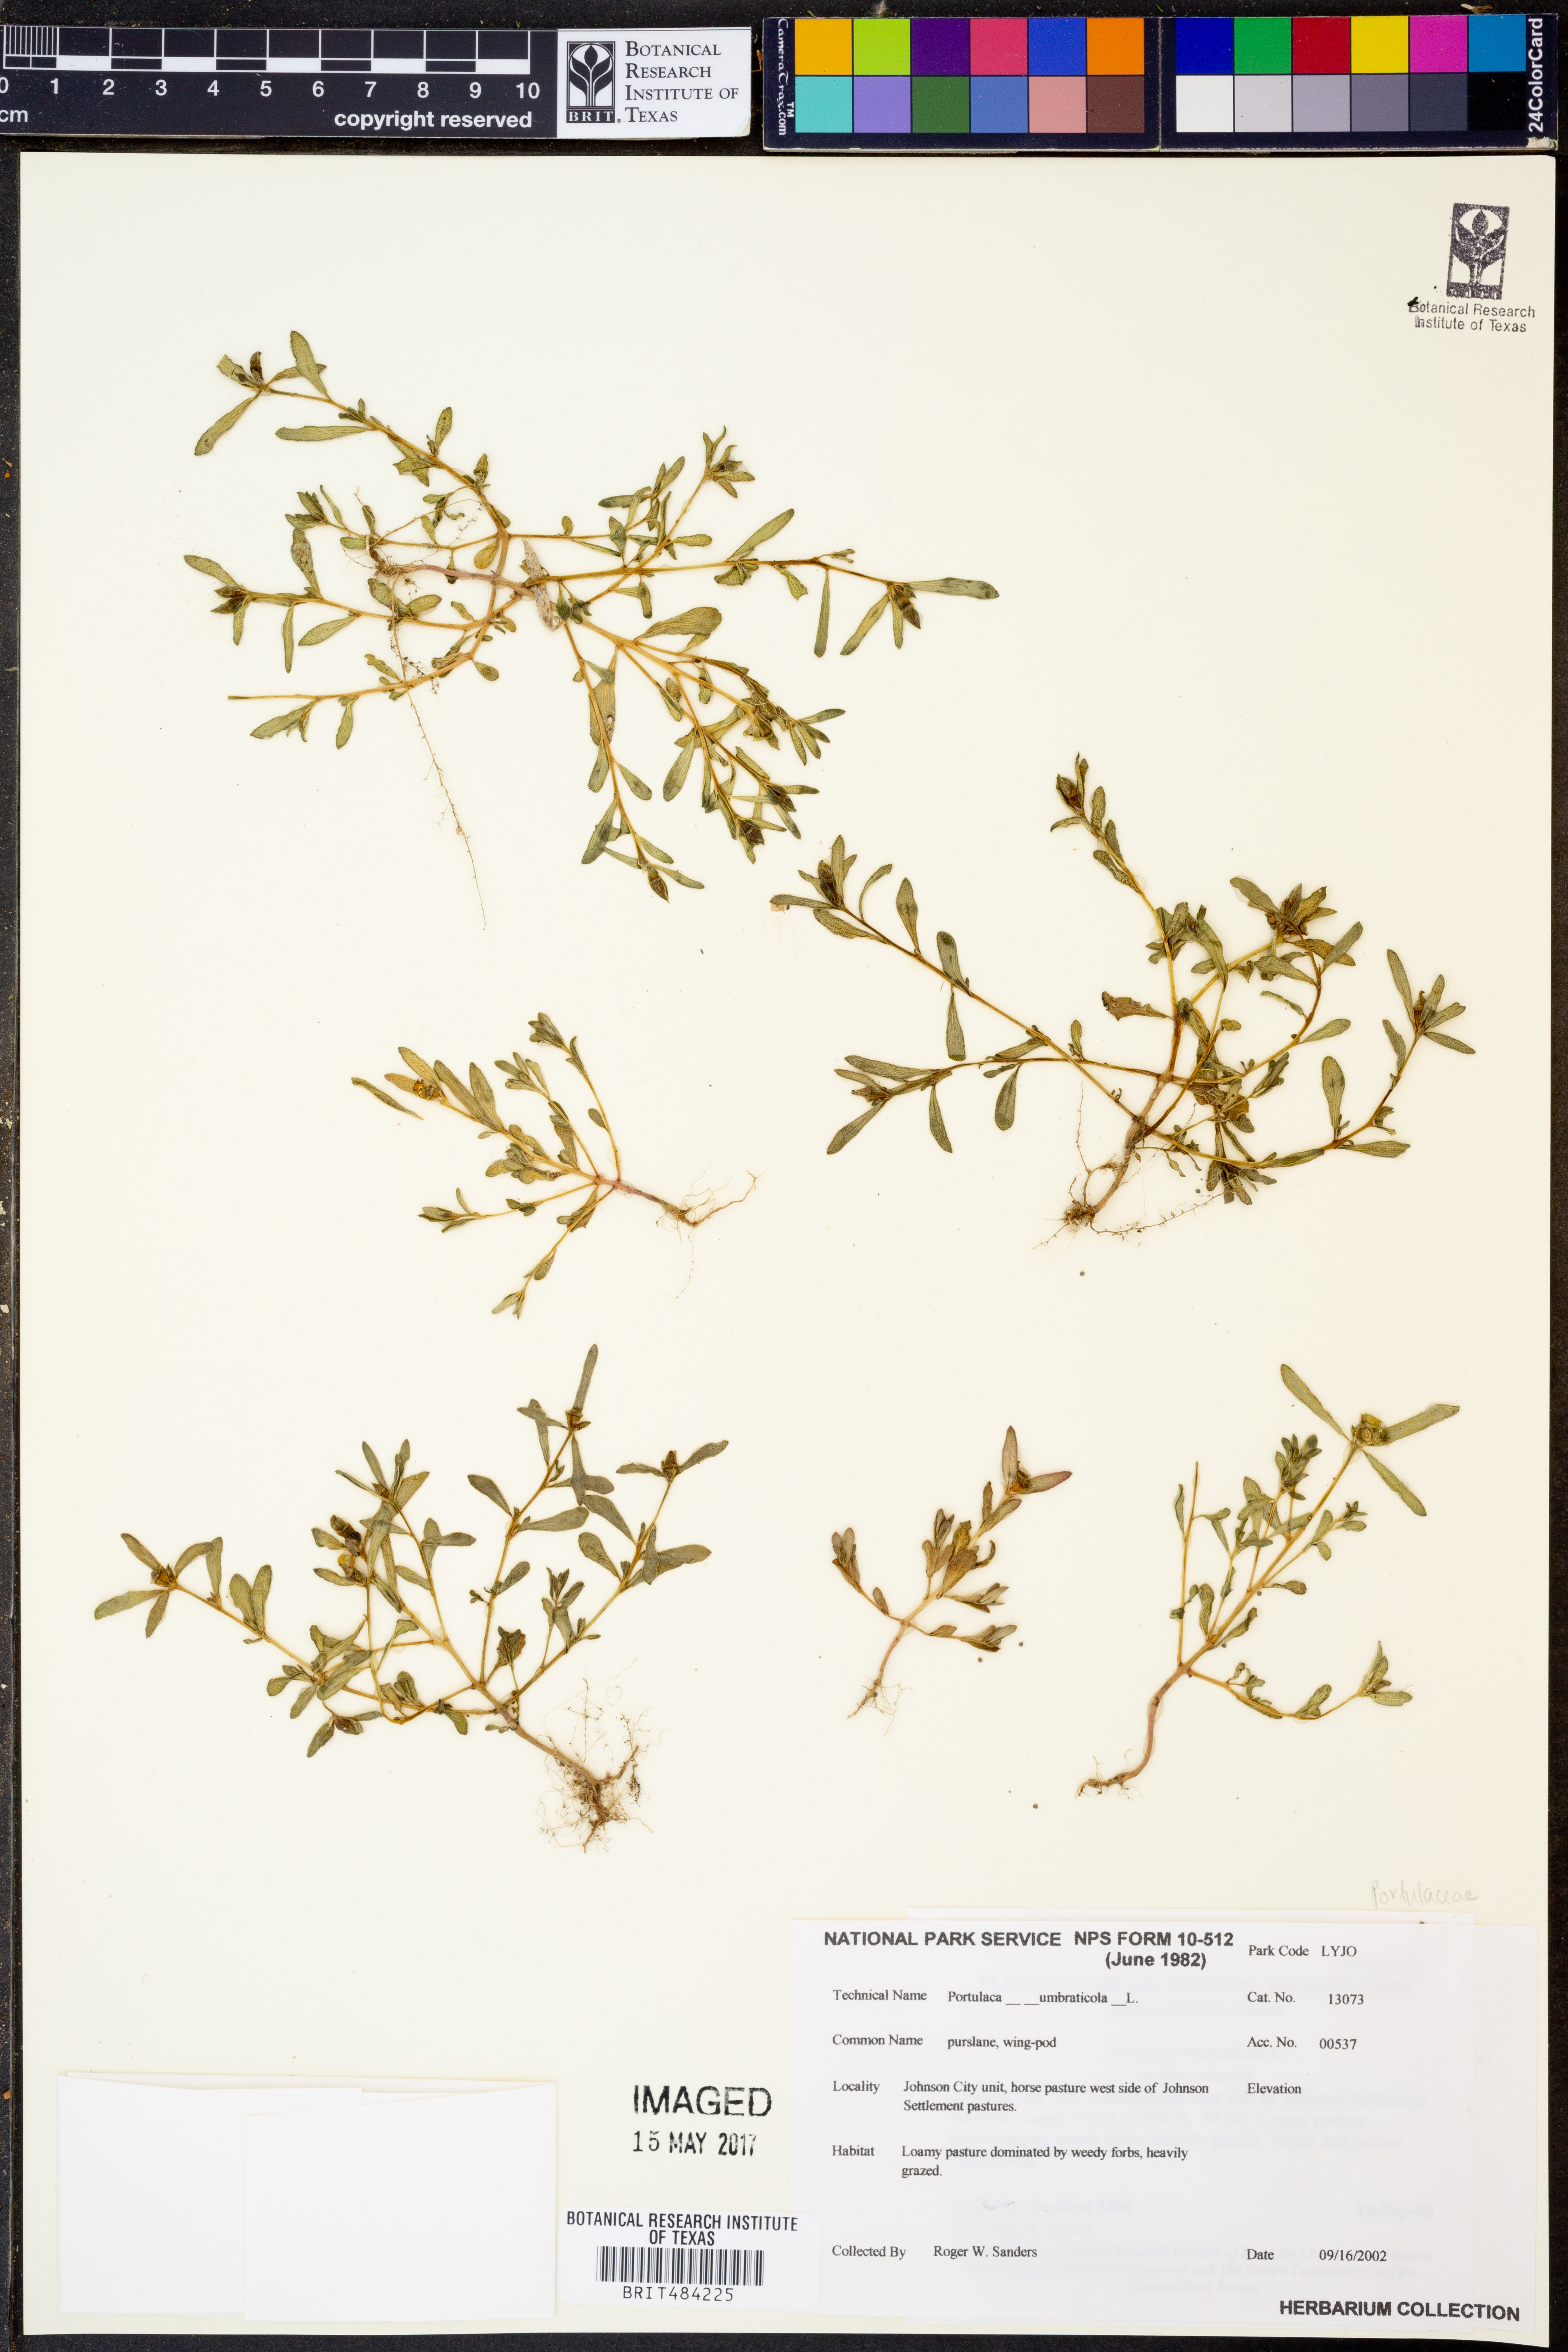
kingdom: Plantae
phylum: Tracheophyta
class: Magnoliopsida
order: Caryophyllales
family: Portulacaceae
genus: Portulaca
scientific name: Portulaca umbraticola
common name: Wingpod purslane
